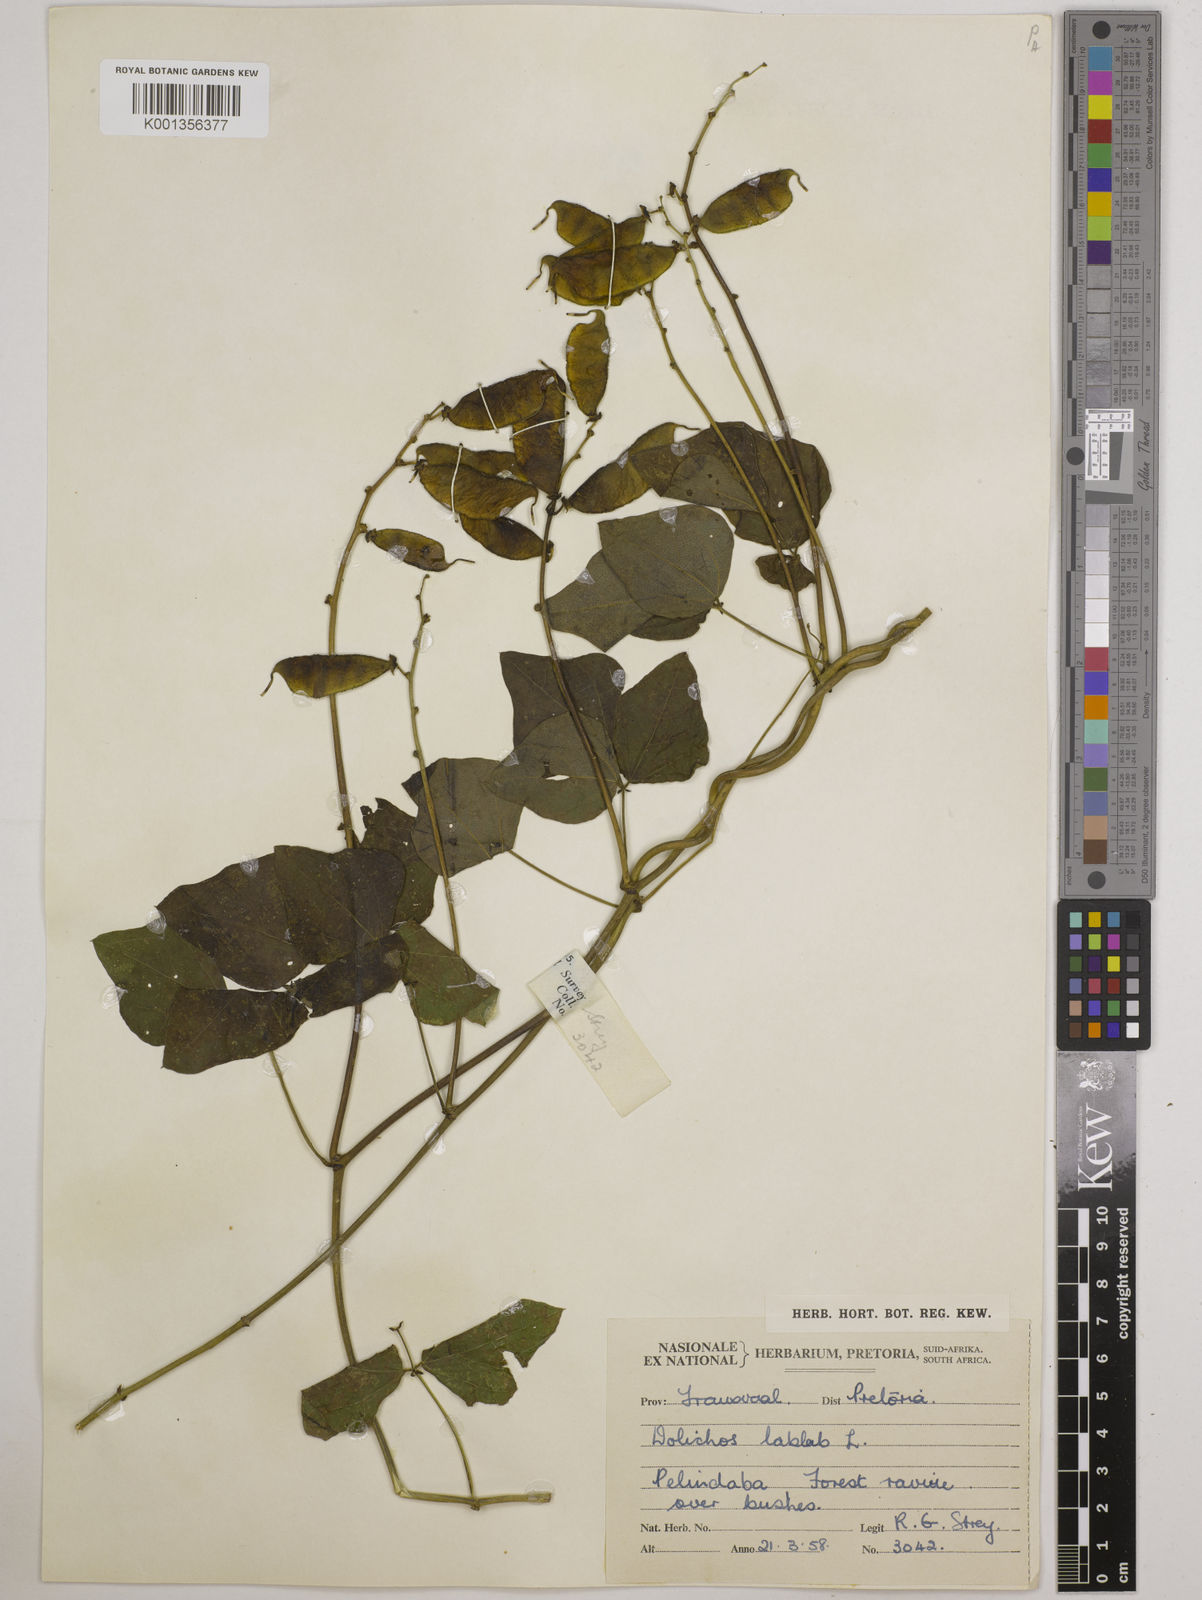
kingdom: Plantae
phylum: Tracheophyta
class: Magnoliopsida
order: Fabales
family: Fabaceae
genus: Lablab
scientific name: Lablab purpureus
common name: Lablab-bean
